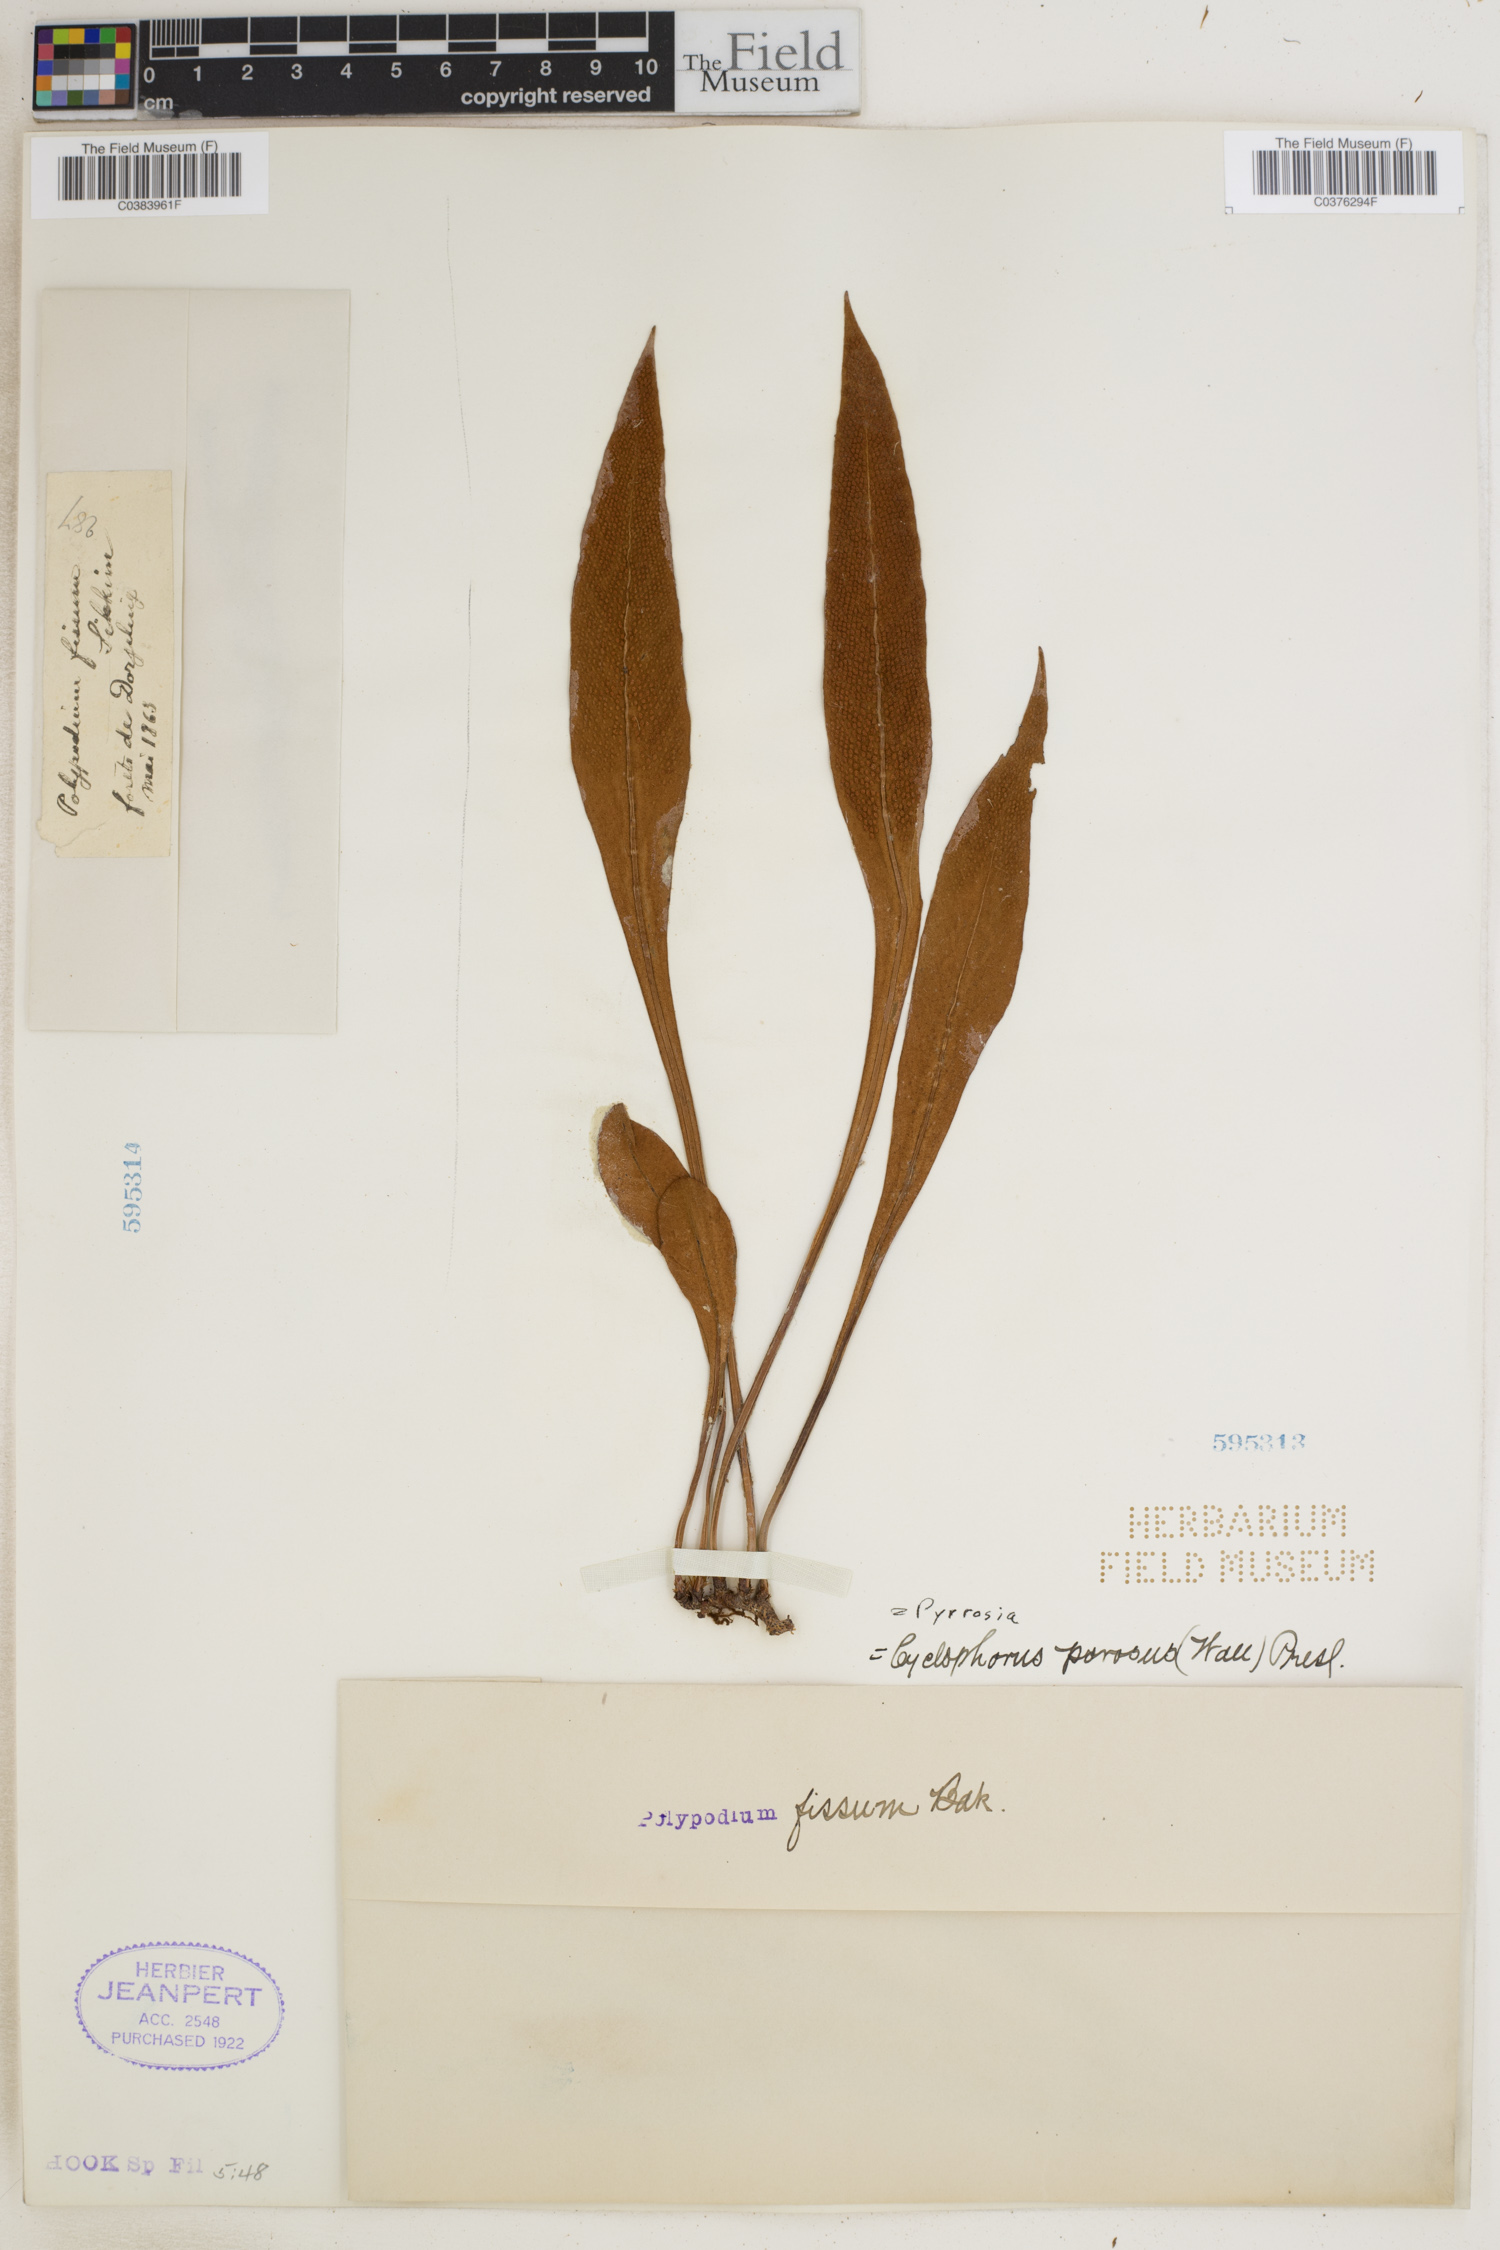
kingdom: Plantae
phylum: Tracheophyta
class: Polypodiopsida
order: Polypodiales
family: Polypodiaceae
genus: Pyrrosia
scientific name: Pyrrosia porosa
